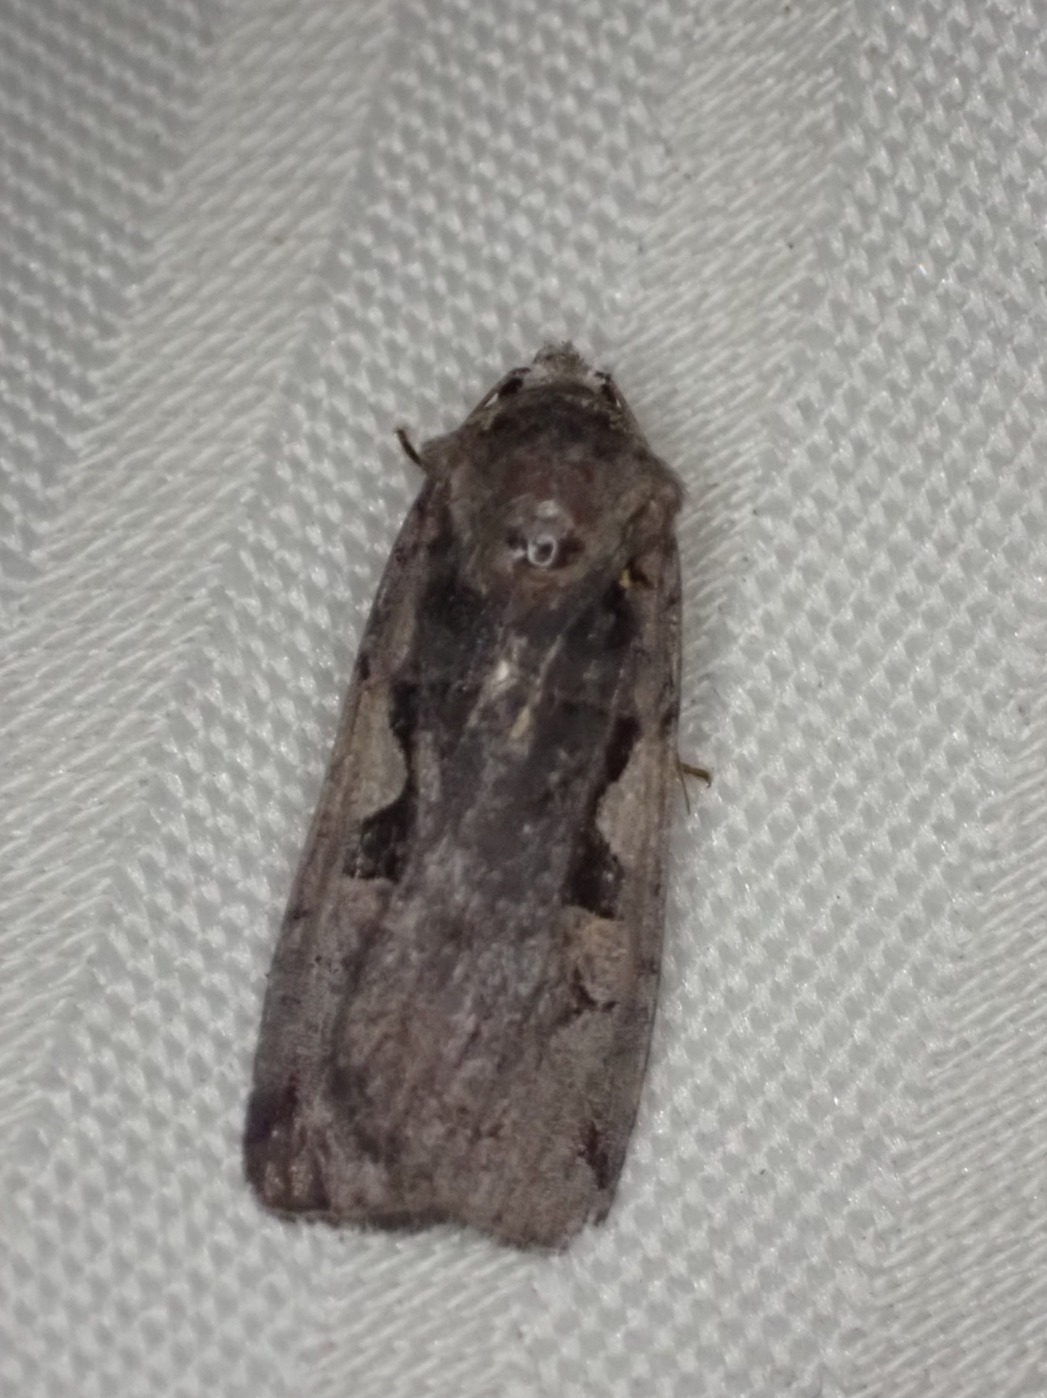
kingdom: Animalia
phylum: Arthropoda
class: Insecta
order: Lepidoptera
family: Noctuidae
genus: Xestia
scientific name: Xestia c-nigrum
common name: Det sorte c
